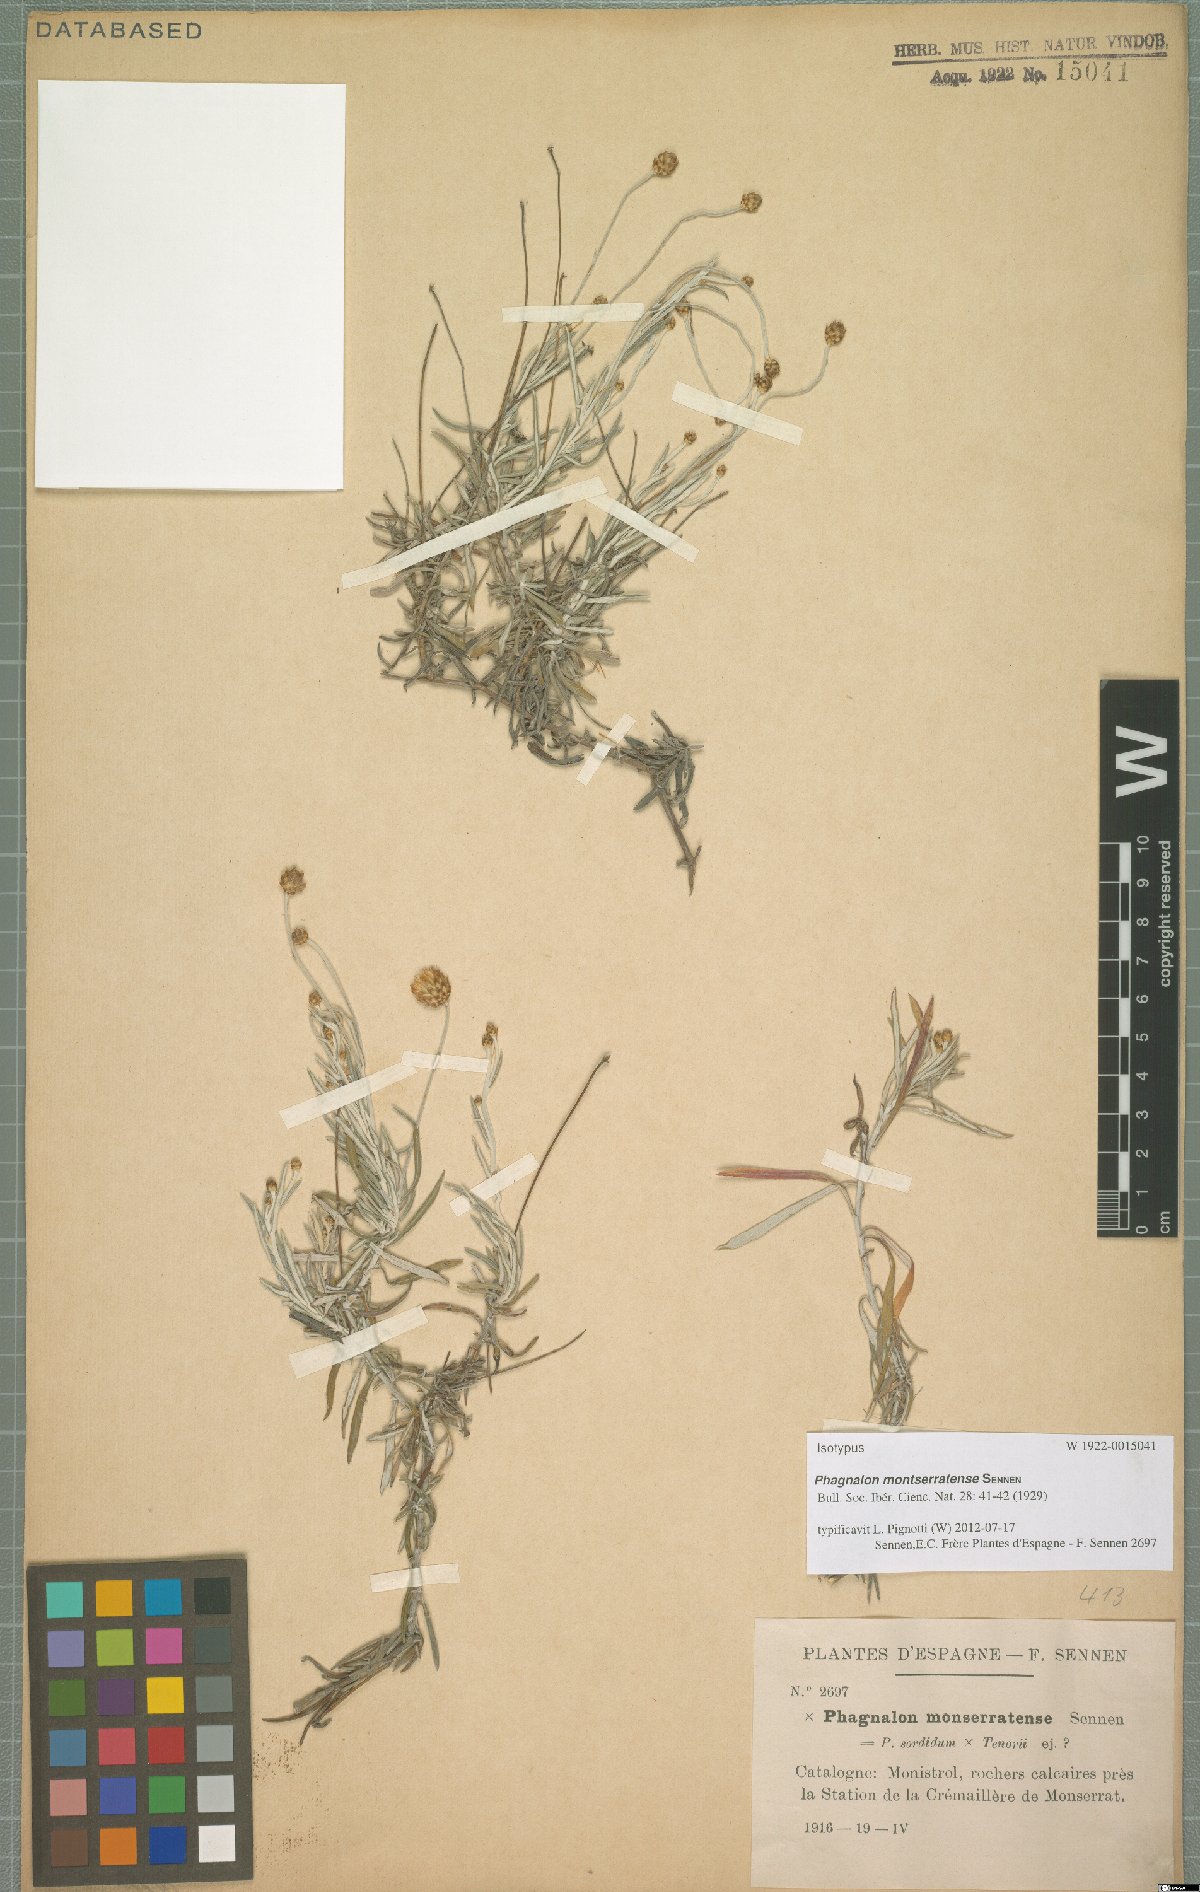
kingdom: Plantae
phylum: Tracheophyta
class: Magnoliopsida
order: Asterales
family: Asteraceae
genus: Phagnalon
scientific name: Phagnalon caroli
